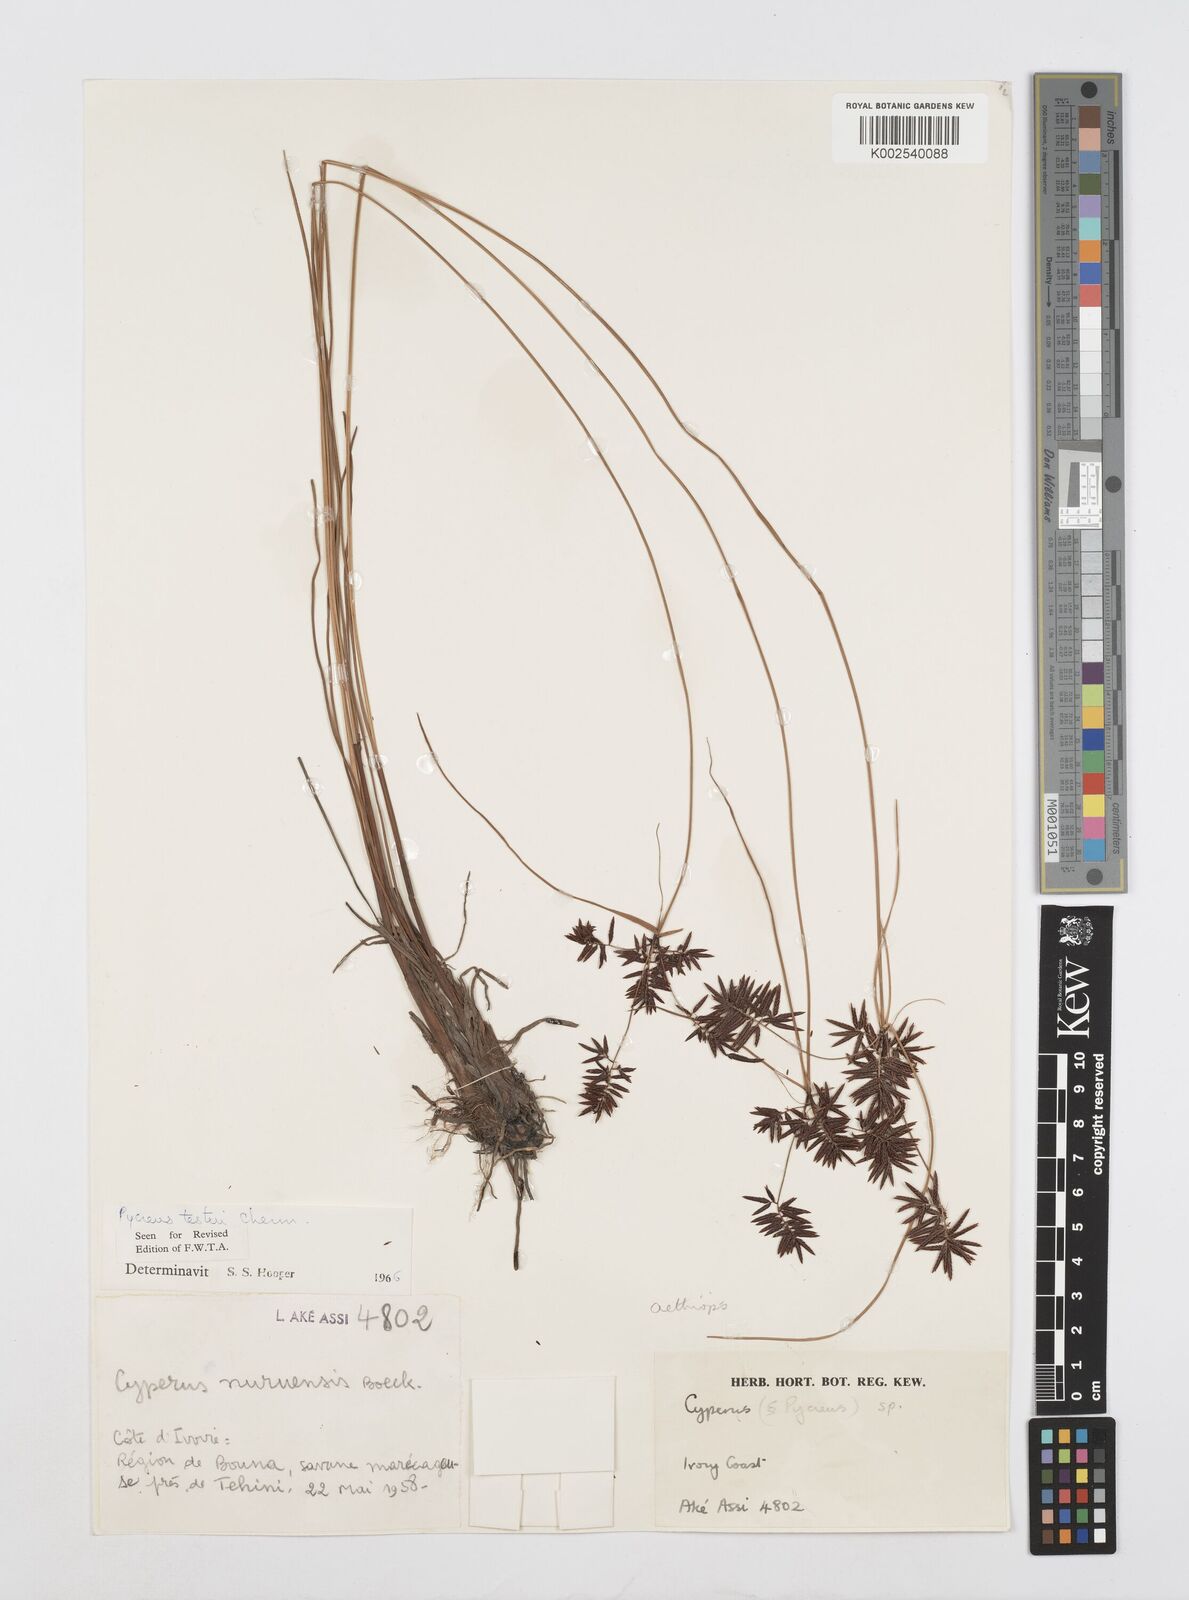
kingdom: Plantae
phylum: Tracheophyta
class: Liliopsida
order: Poales
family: Cyperaceae
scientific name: Cyperaceae
